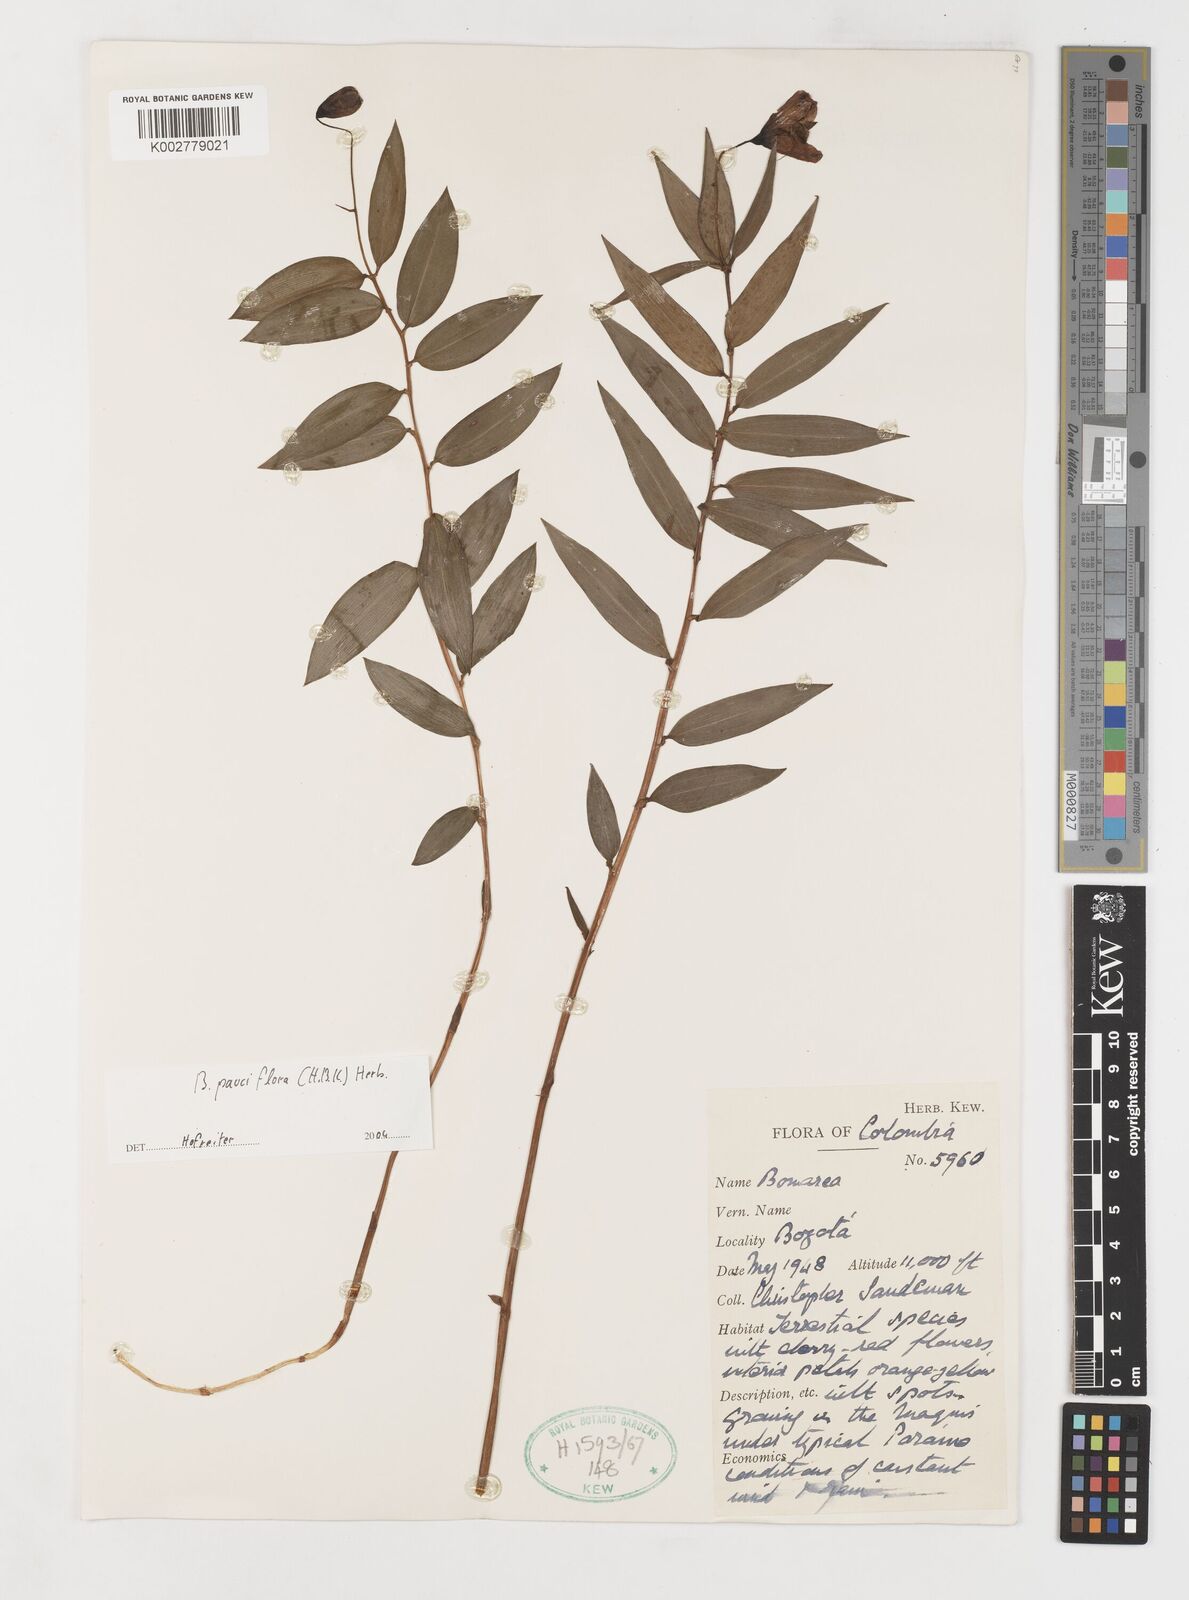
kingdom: Plantae
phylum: Tracheophyta
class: Liliopsida
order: Liliales
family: Alstroemeriaceae
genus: Bomarea
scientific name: Bomarea pauciflora
